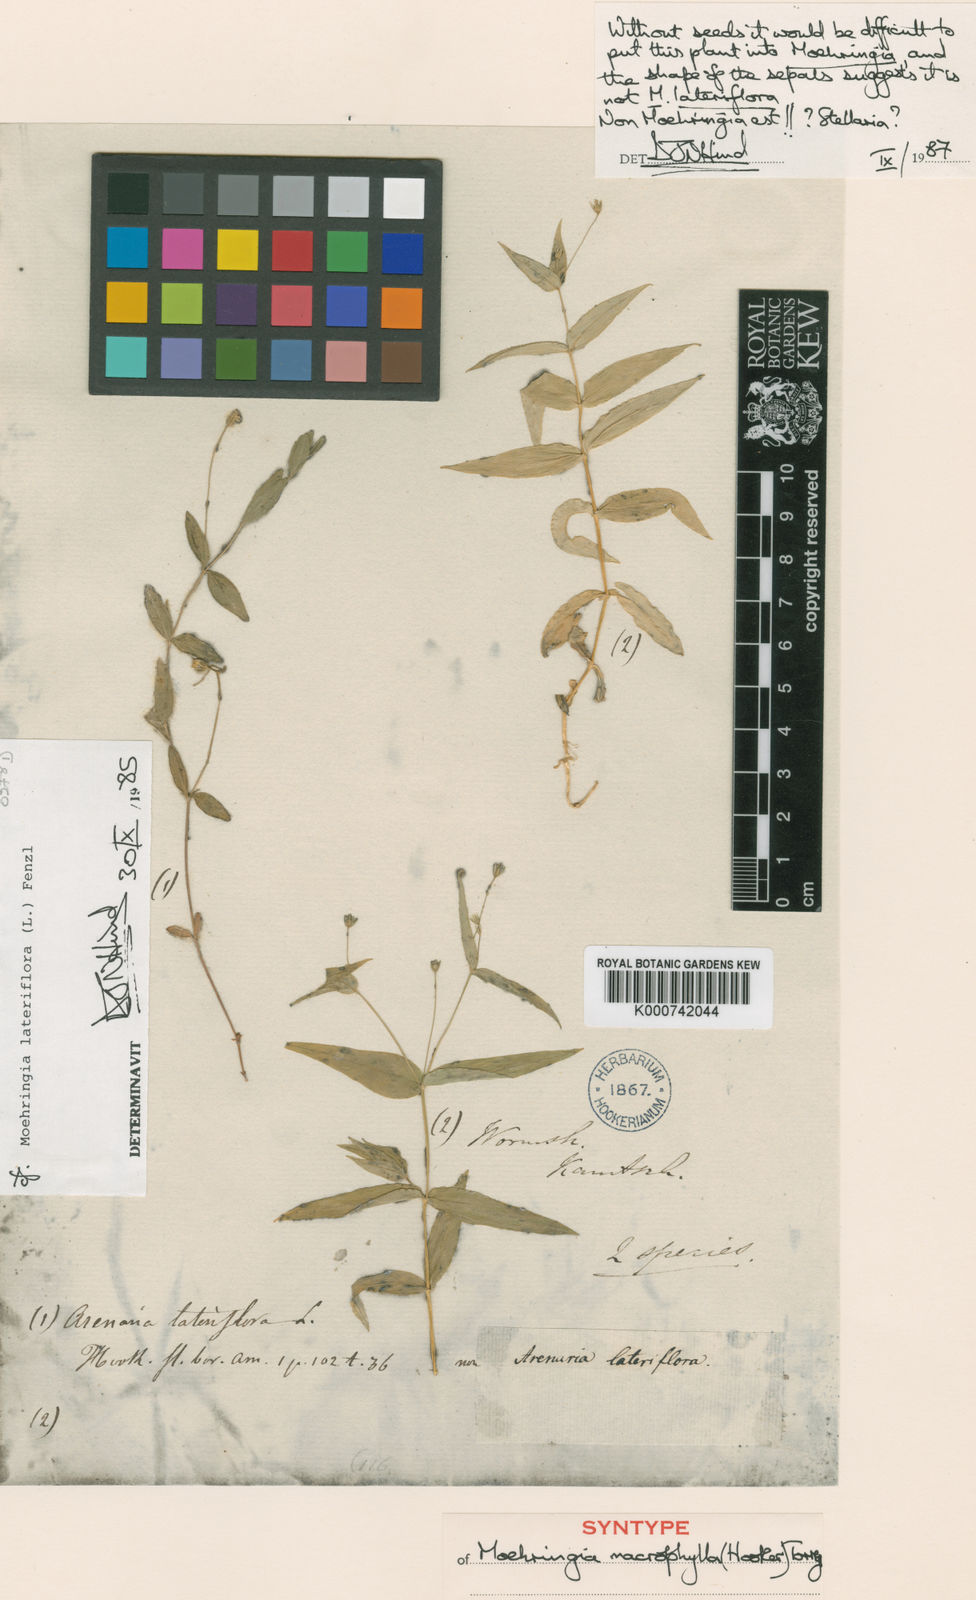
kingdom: Plantae
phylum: Tracheophyta
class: Magnoliopsida
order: Caryophyllales
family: Caryophyllaceae
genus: Moehringia
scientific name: Moehringia macrophylla
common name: Big-leaf sandwort
